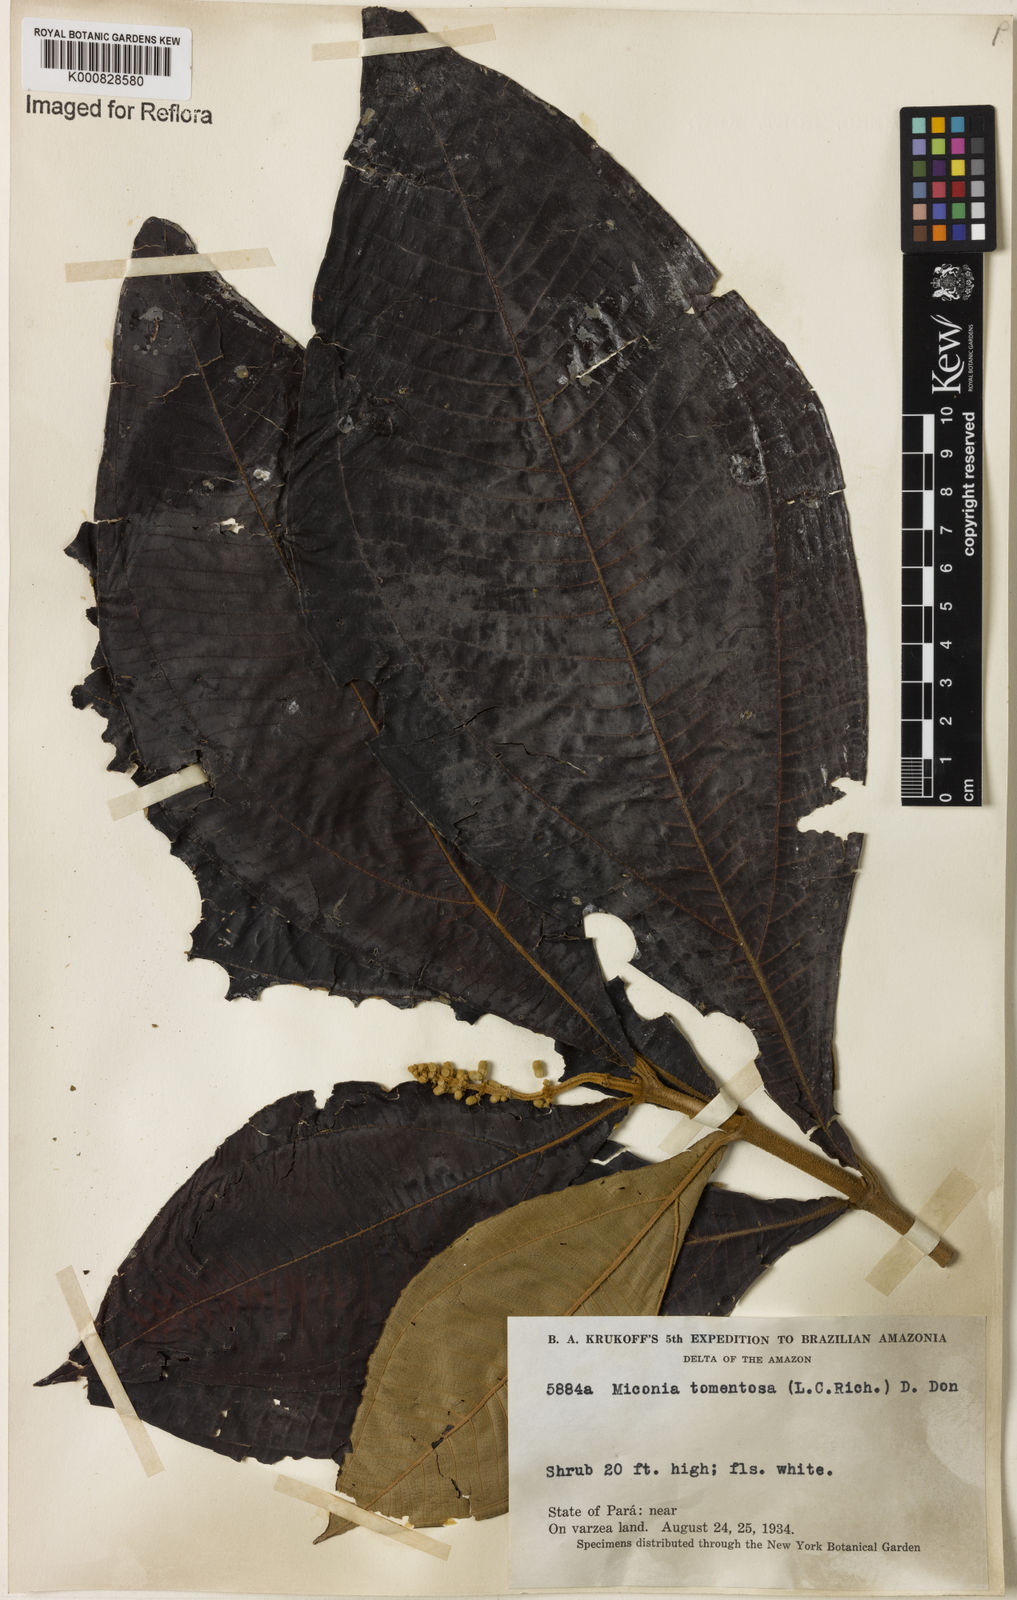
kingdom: Plantae
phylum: Tracheophyta
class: Magnoliopsida
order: Myrtales
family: Melastomataceae
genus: Miconia
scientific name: Miconia tomentosa
